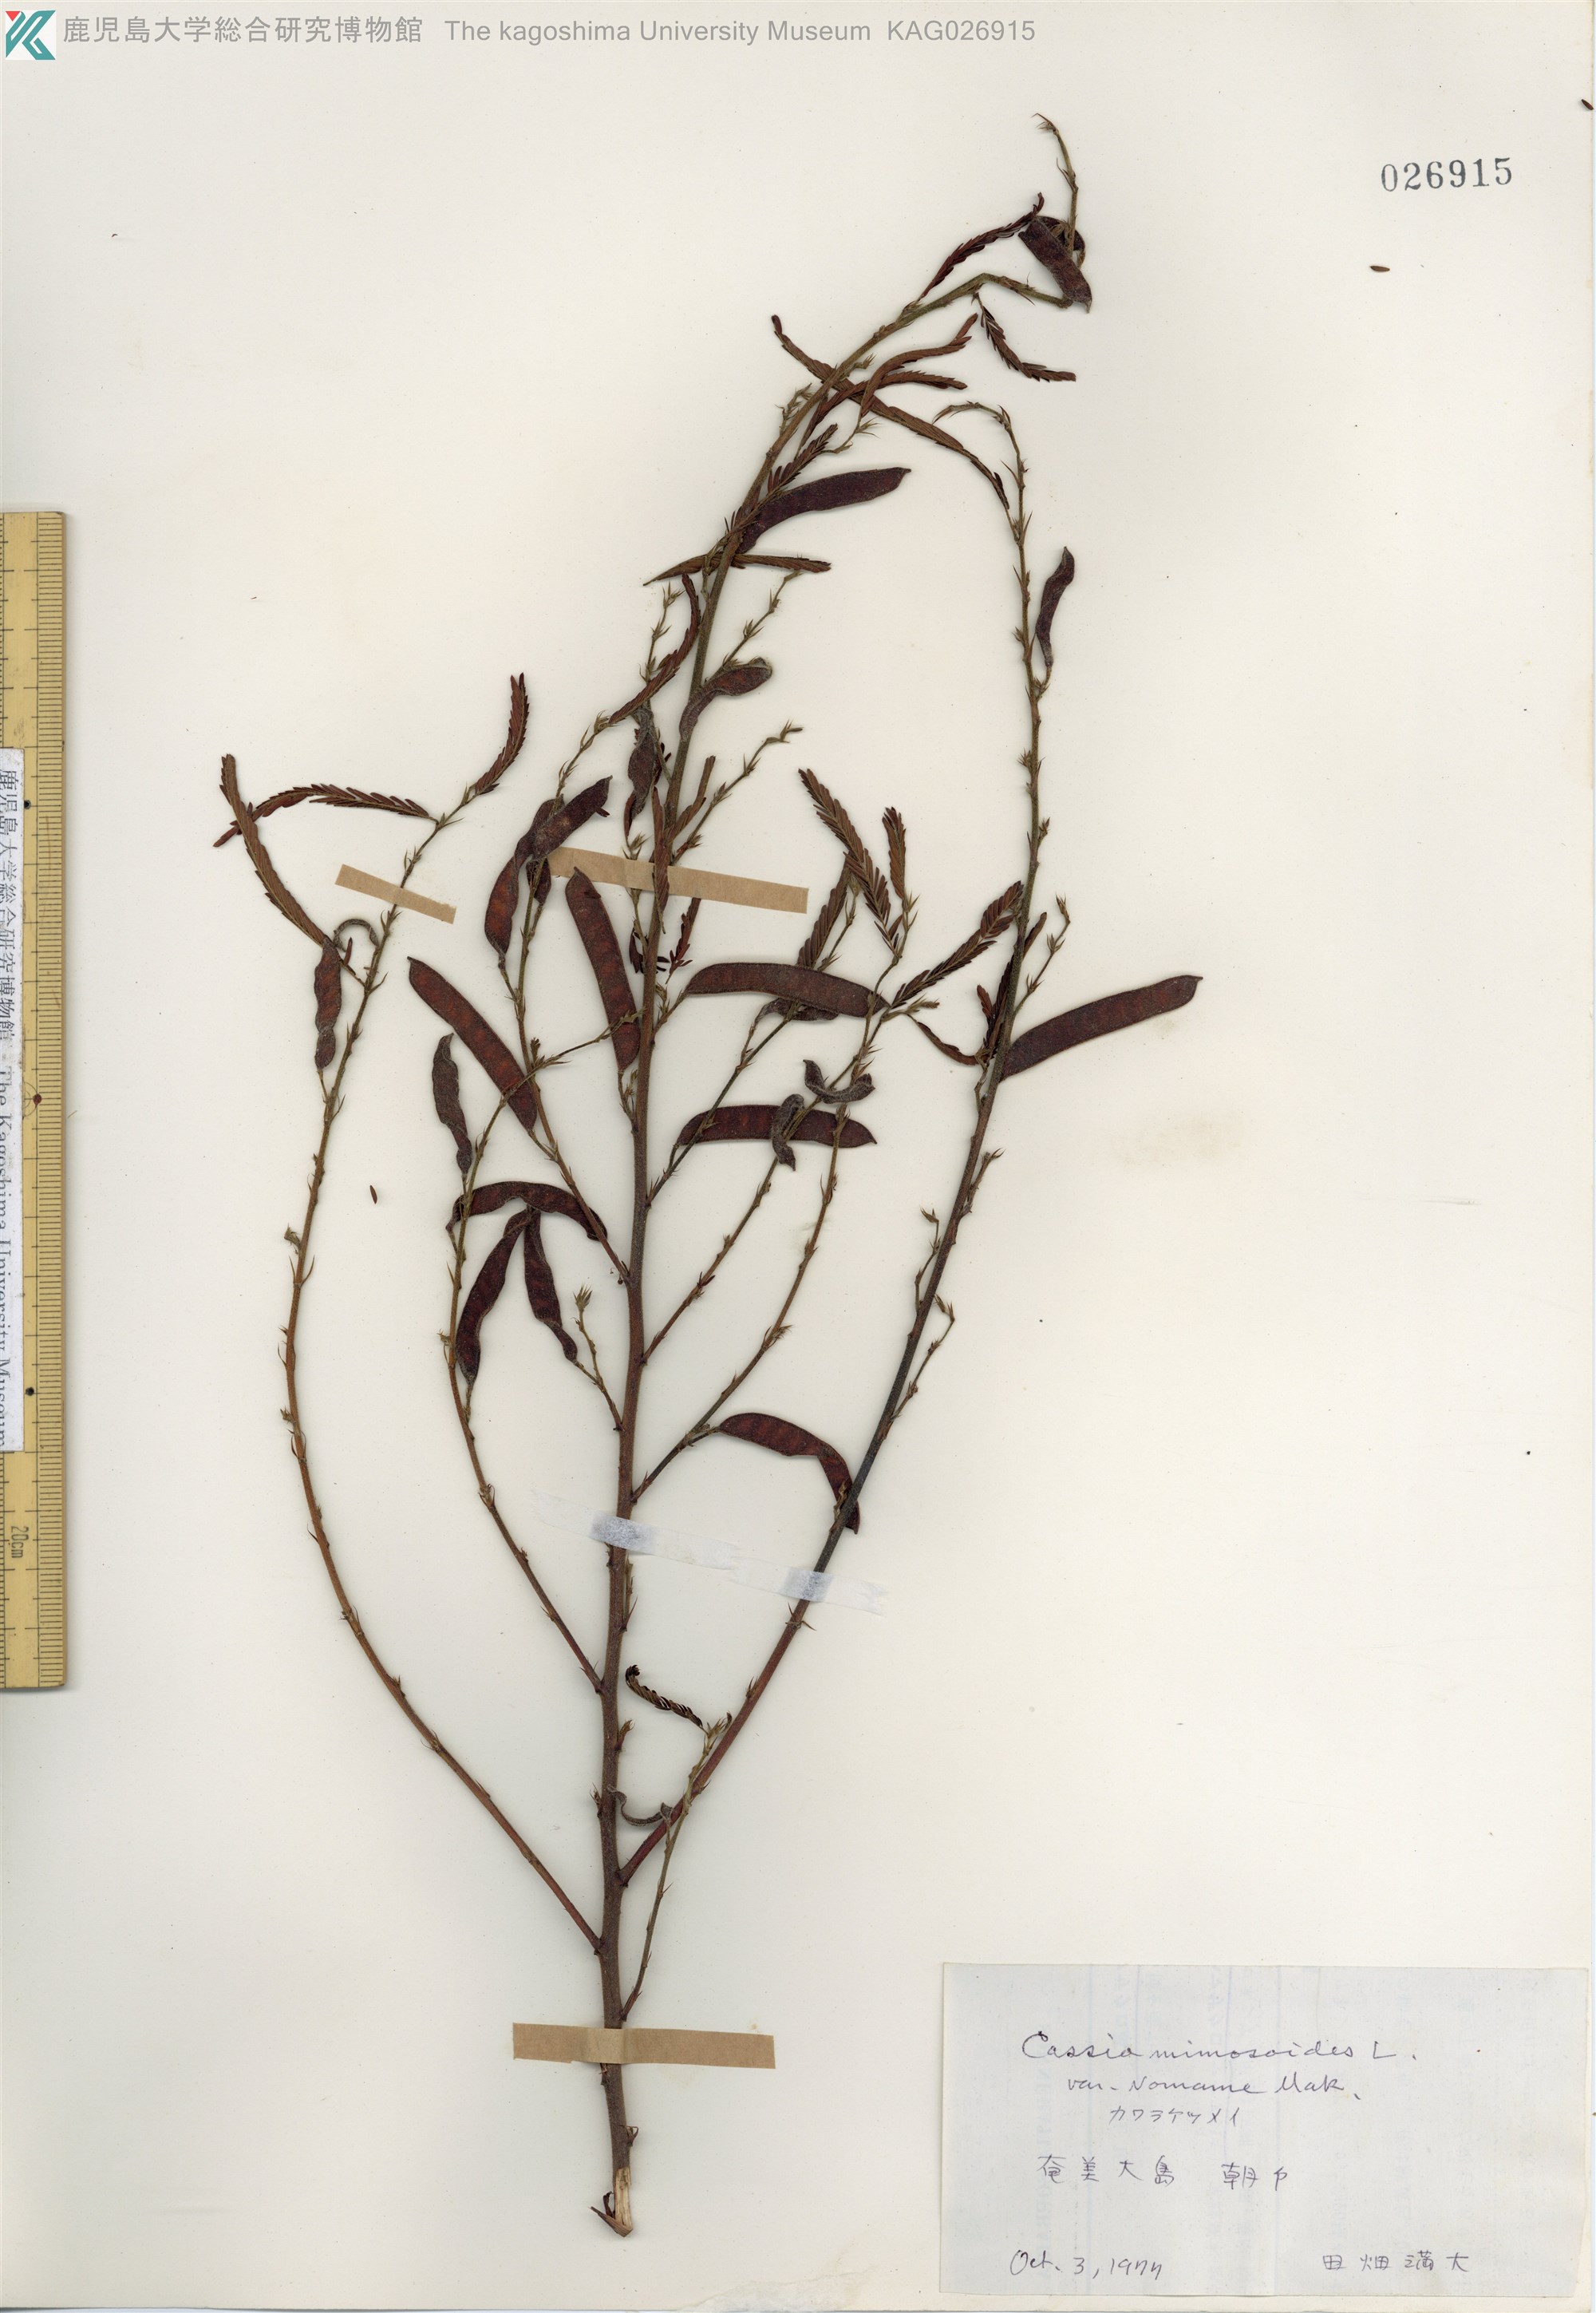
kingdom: Plantae
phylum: Tracheophyta
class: Magnoliopsida
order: Fabales
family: Fabaceae
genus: Chamaecrista
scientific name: Chamaecrista nomame
